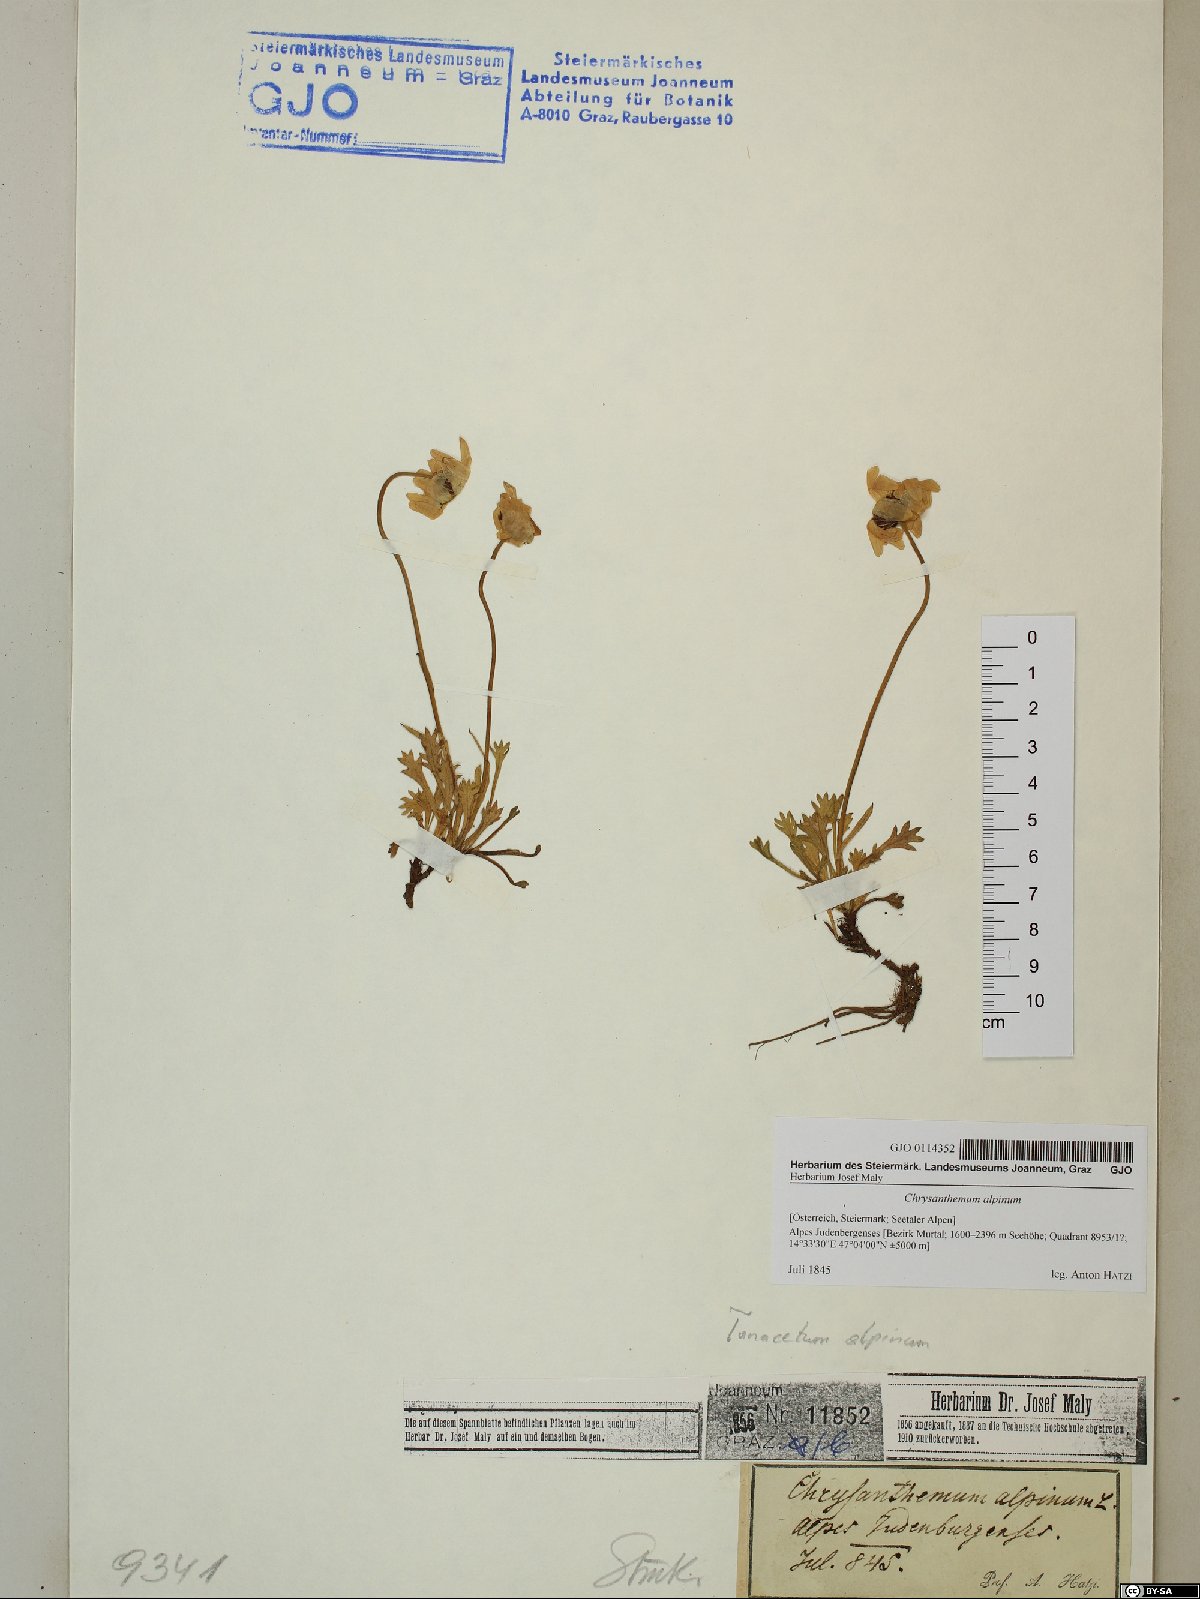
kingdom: Plantae
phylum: Tracheophyta
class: Magnoliopsida
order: Asterales
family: Asteraceae
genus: Leucanthemopsis
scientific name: Leucanthemopsis alpina
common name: Alpine moon daisy
